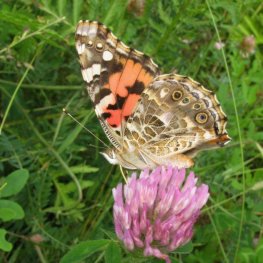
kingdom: Animalia
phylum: Arthropoda
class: Insecta
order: Lepidoptera
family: Nymphalidae
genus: Vanessa
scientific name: Vanessa cardui
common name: Painted Lady
